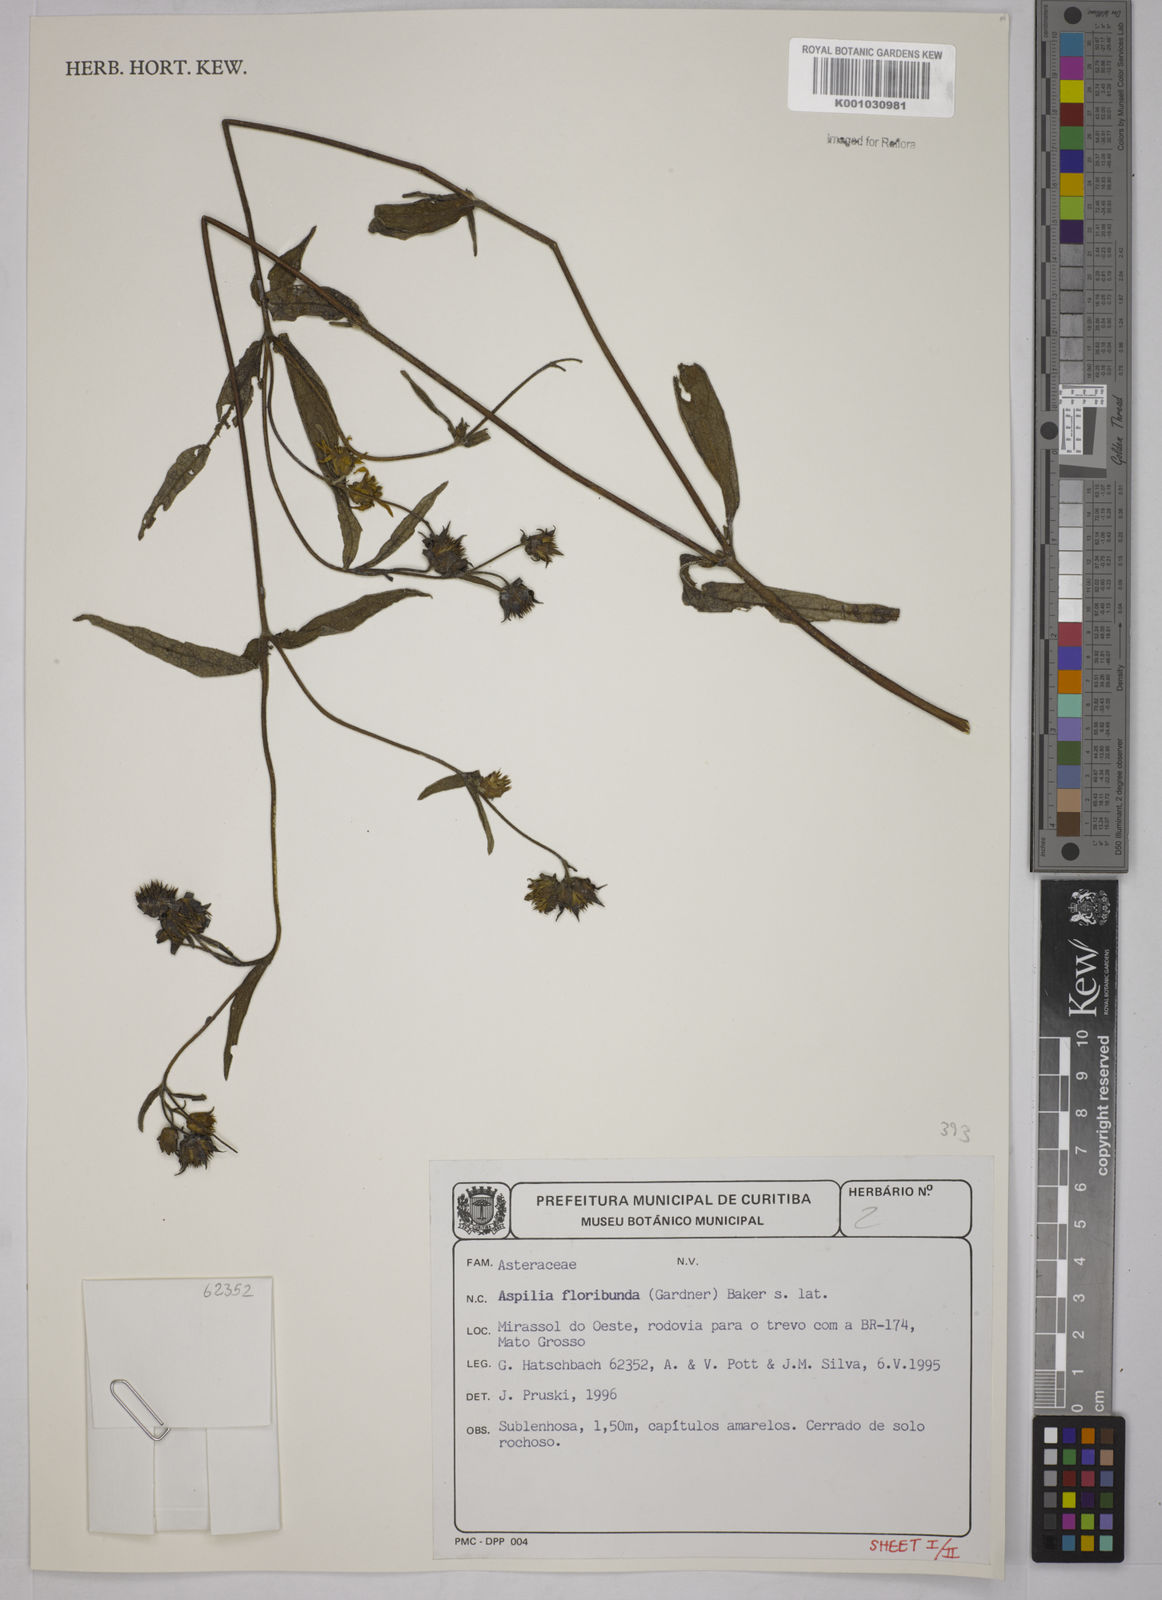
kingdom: Plantae
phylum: Tracheophyta
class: Magnoliopsida
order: Asterales
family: Asteraceae
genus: Wedelia
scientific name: Wedelia floribunda
